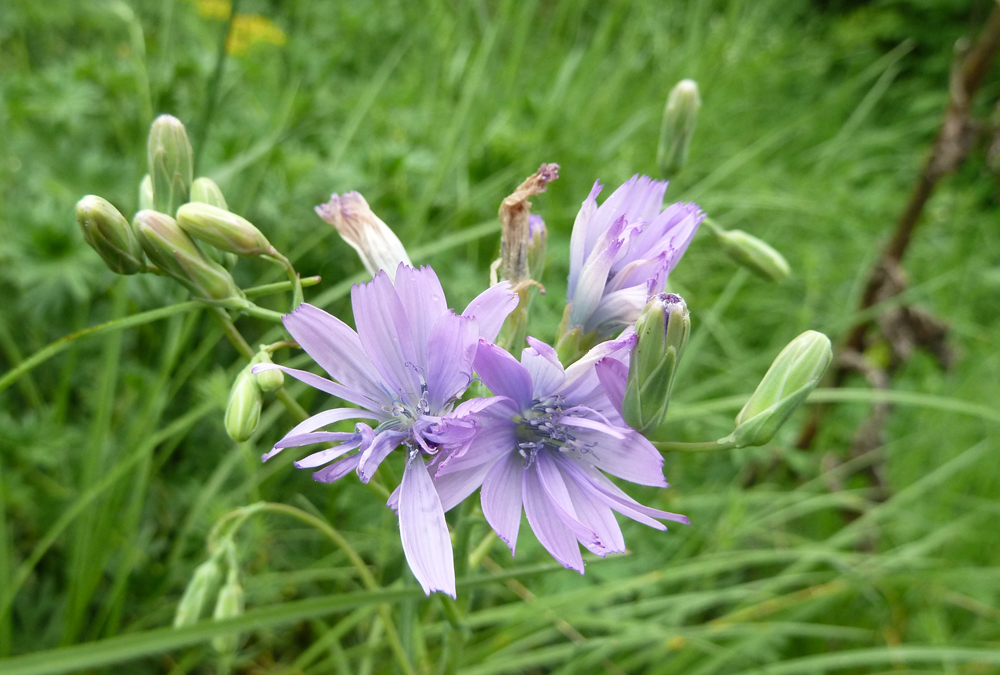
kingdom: Plantae
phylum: Tracheophyta
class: Magnoliopsida
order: Asterales
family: Asteraceae
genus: Lactuca
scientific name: Lactuca perennis
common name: Mountain lettuce
